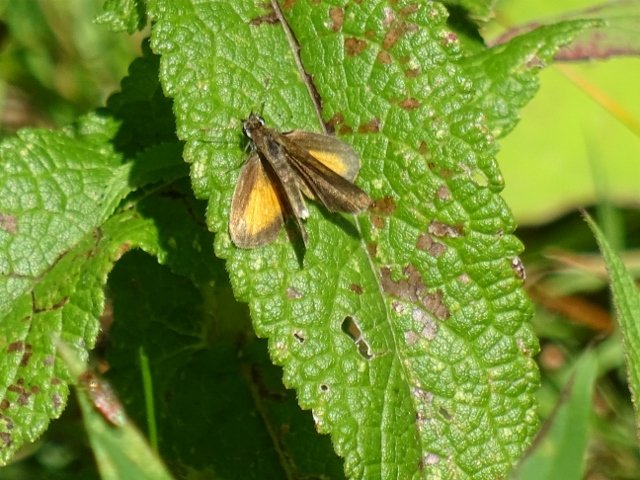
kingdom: Animalia
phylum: Arthropoda
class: Insecta
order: Lepidoptera
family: Hesperiidae
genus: Ancyloxypha
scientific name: Ancyloxypha numitor
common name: Least Skipper
